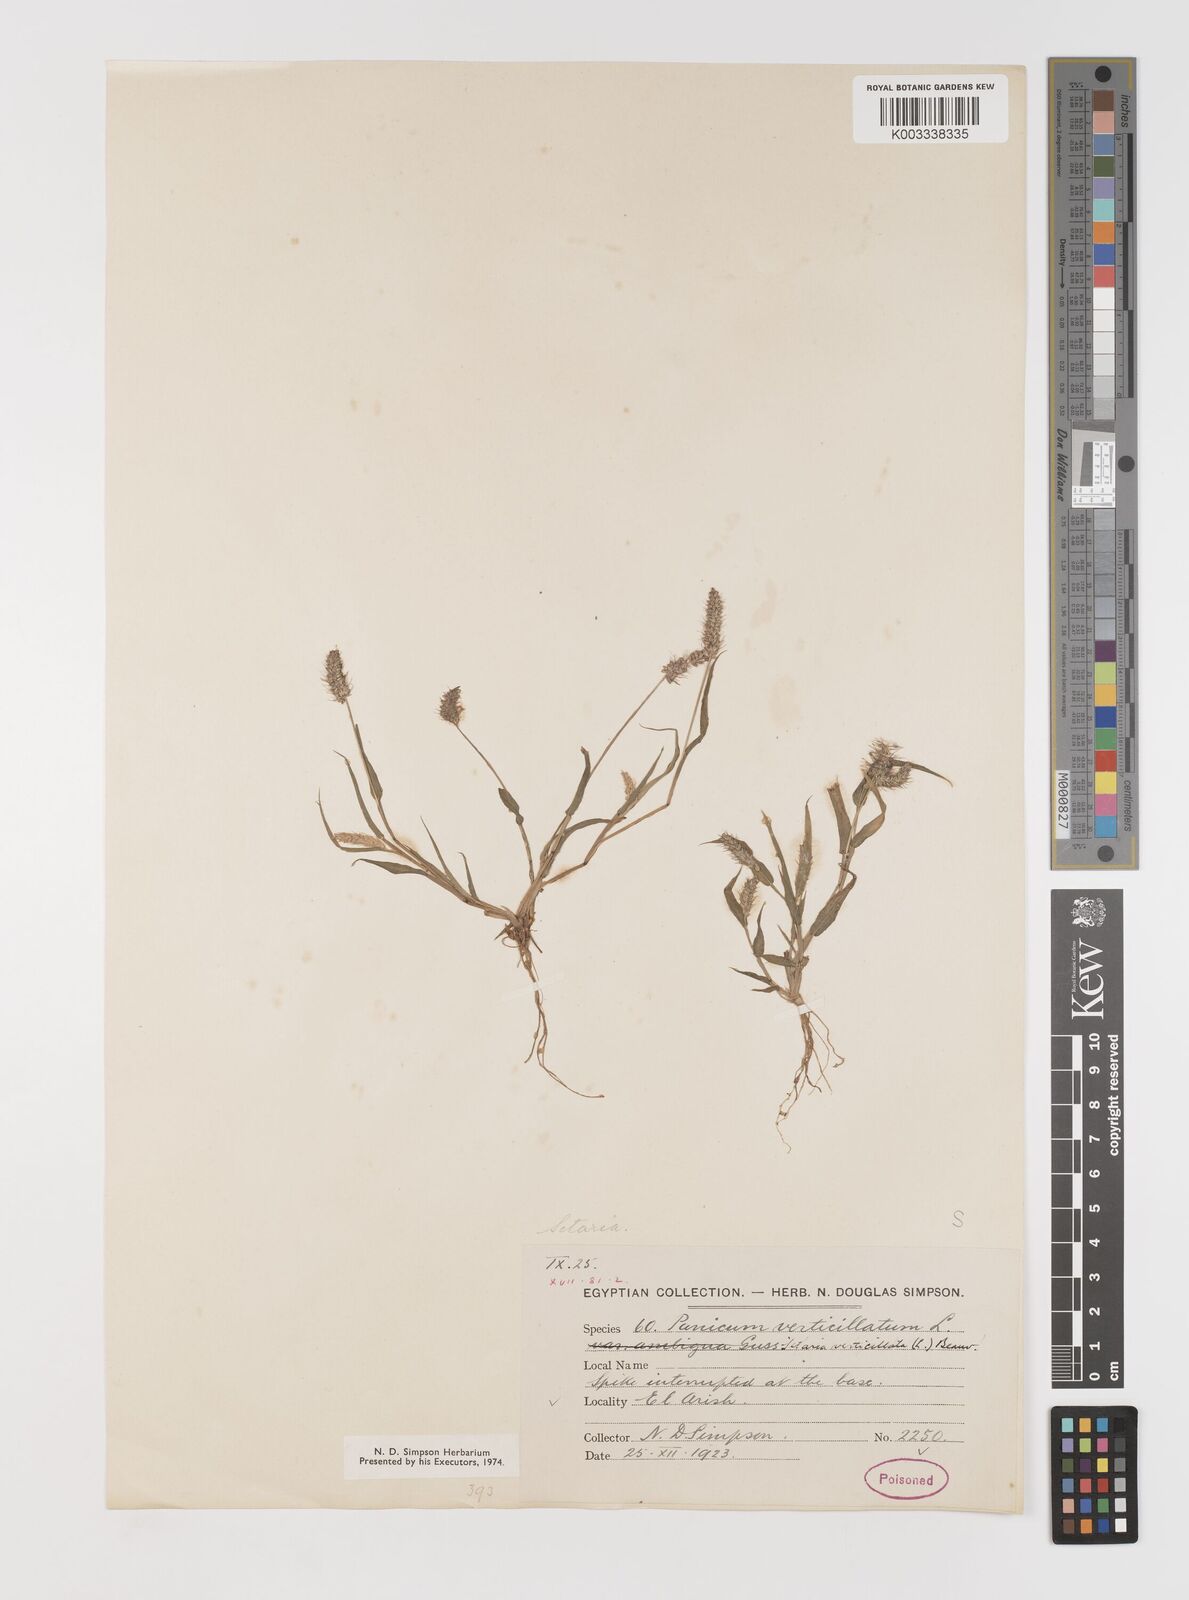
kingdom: Plantae
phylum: Tracheophyta
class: Liliopsida
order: Poales
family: Poaceae
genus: Setaria
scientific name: Setaria verticillata
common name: Hooked bristlegrass
